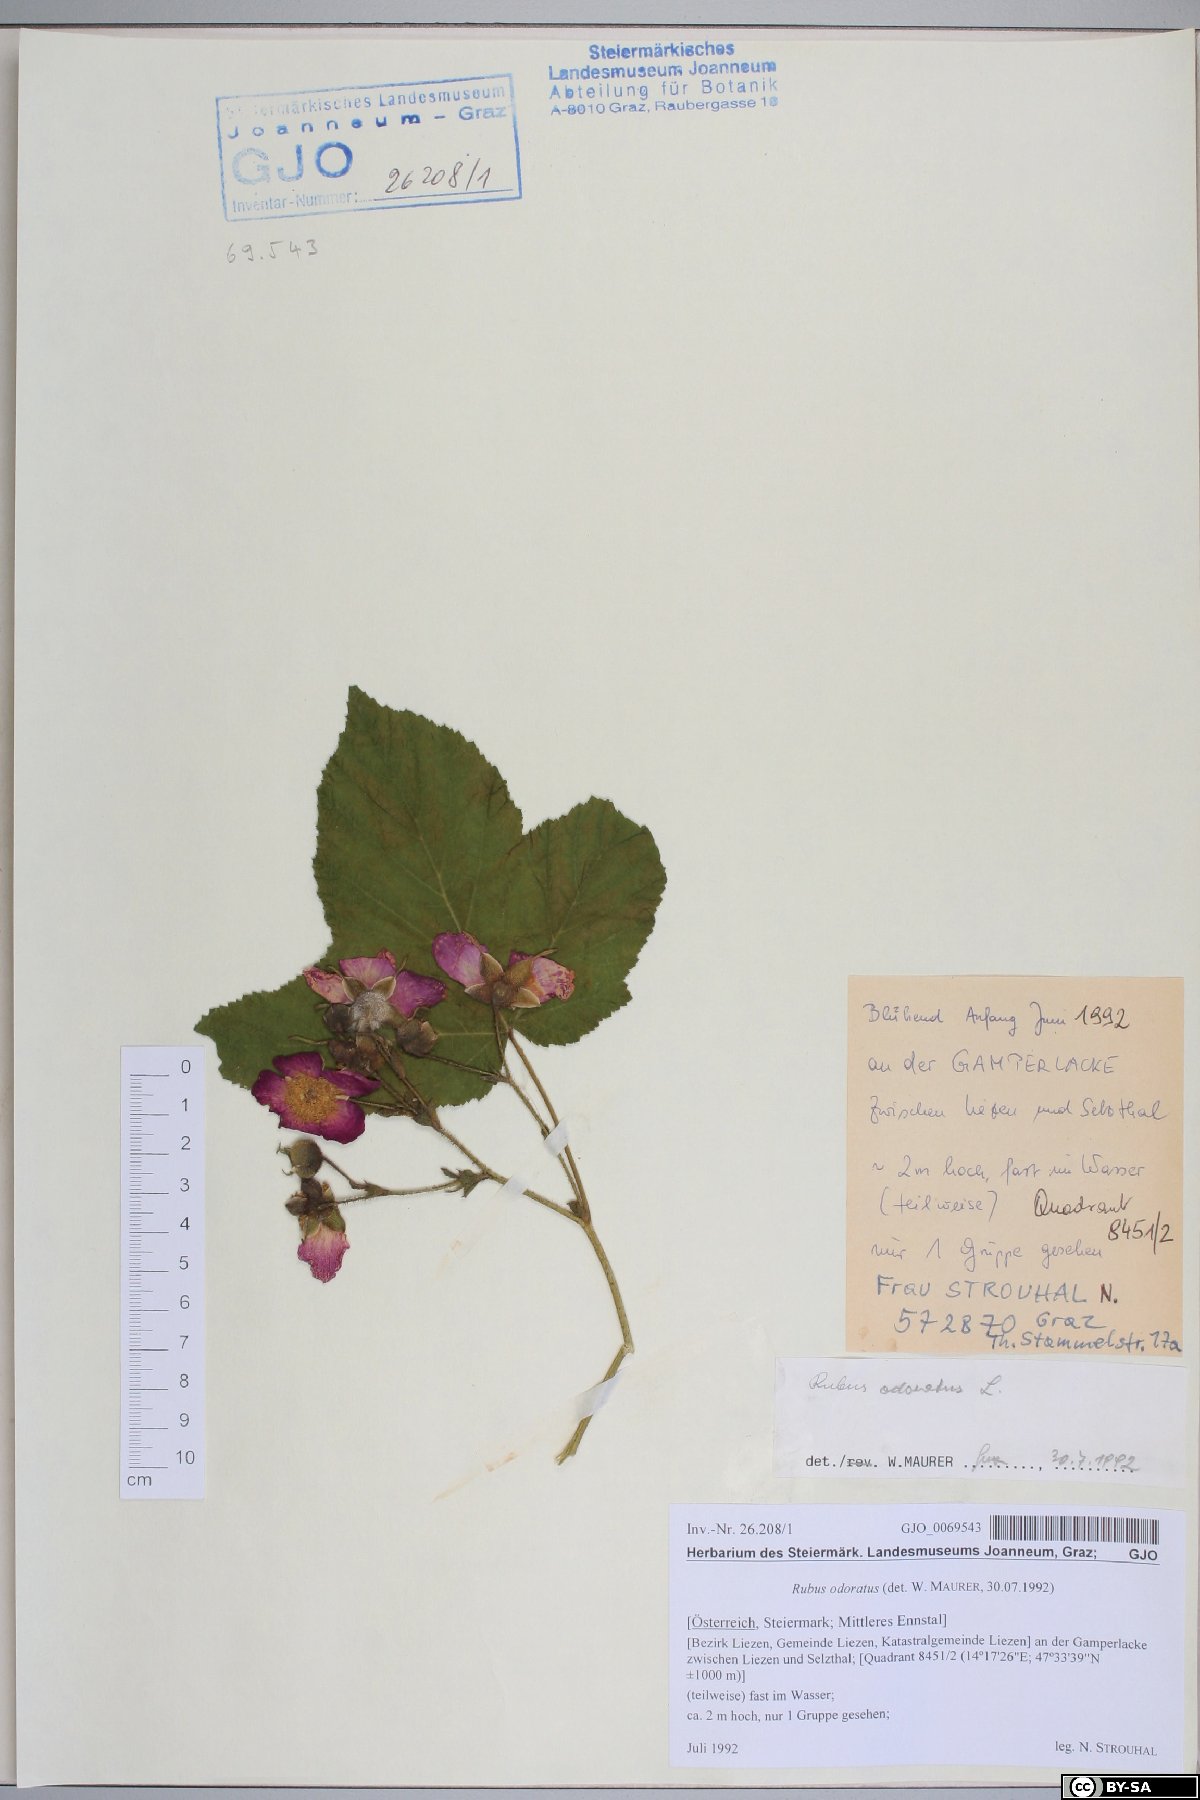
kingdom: Plantae
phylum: Tracheophyta
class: Magnoliopsida
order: Rosales
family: Rosaceae
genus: Rubus
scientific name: Rubus odoratus
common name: Purple-flowered raspberry
